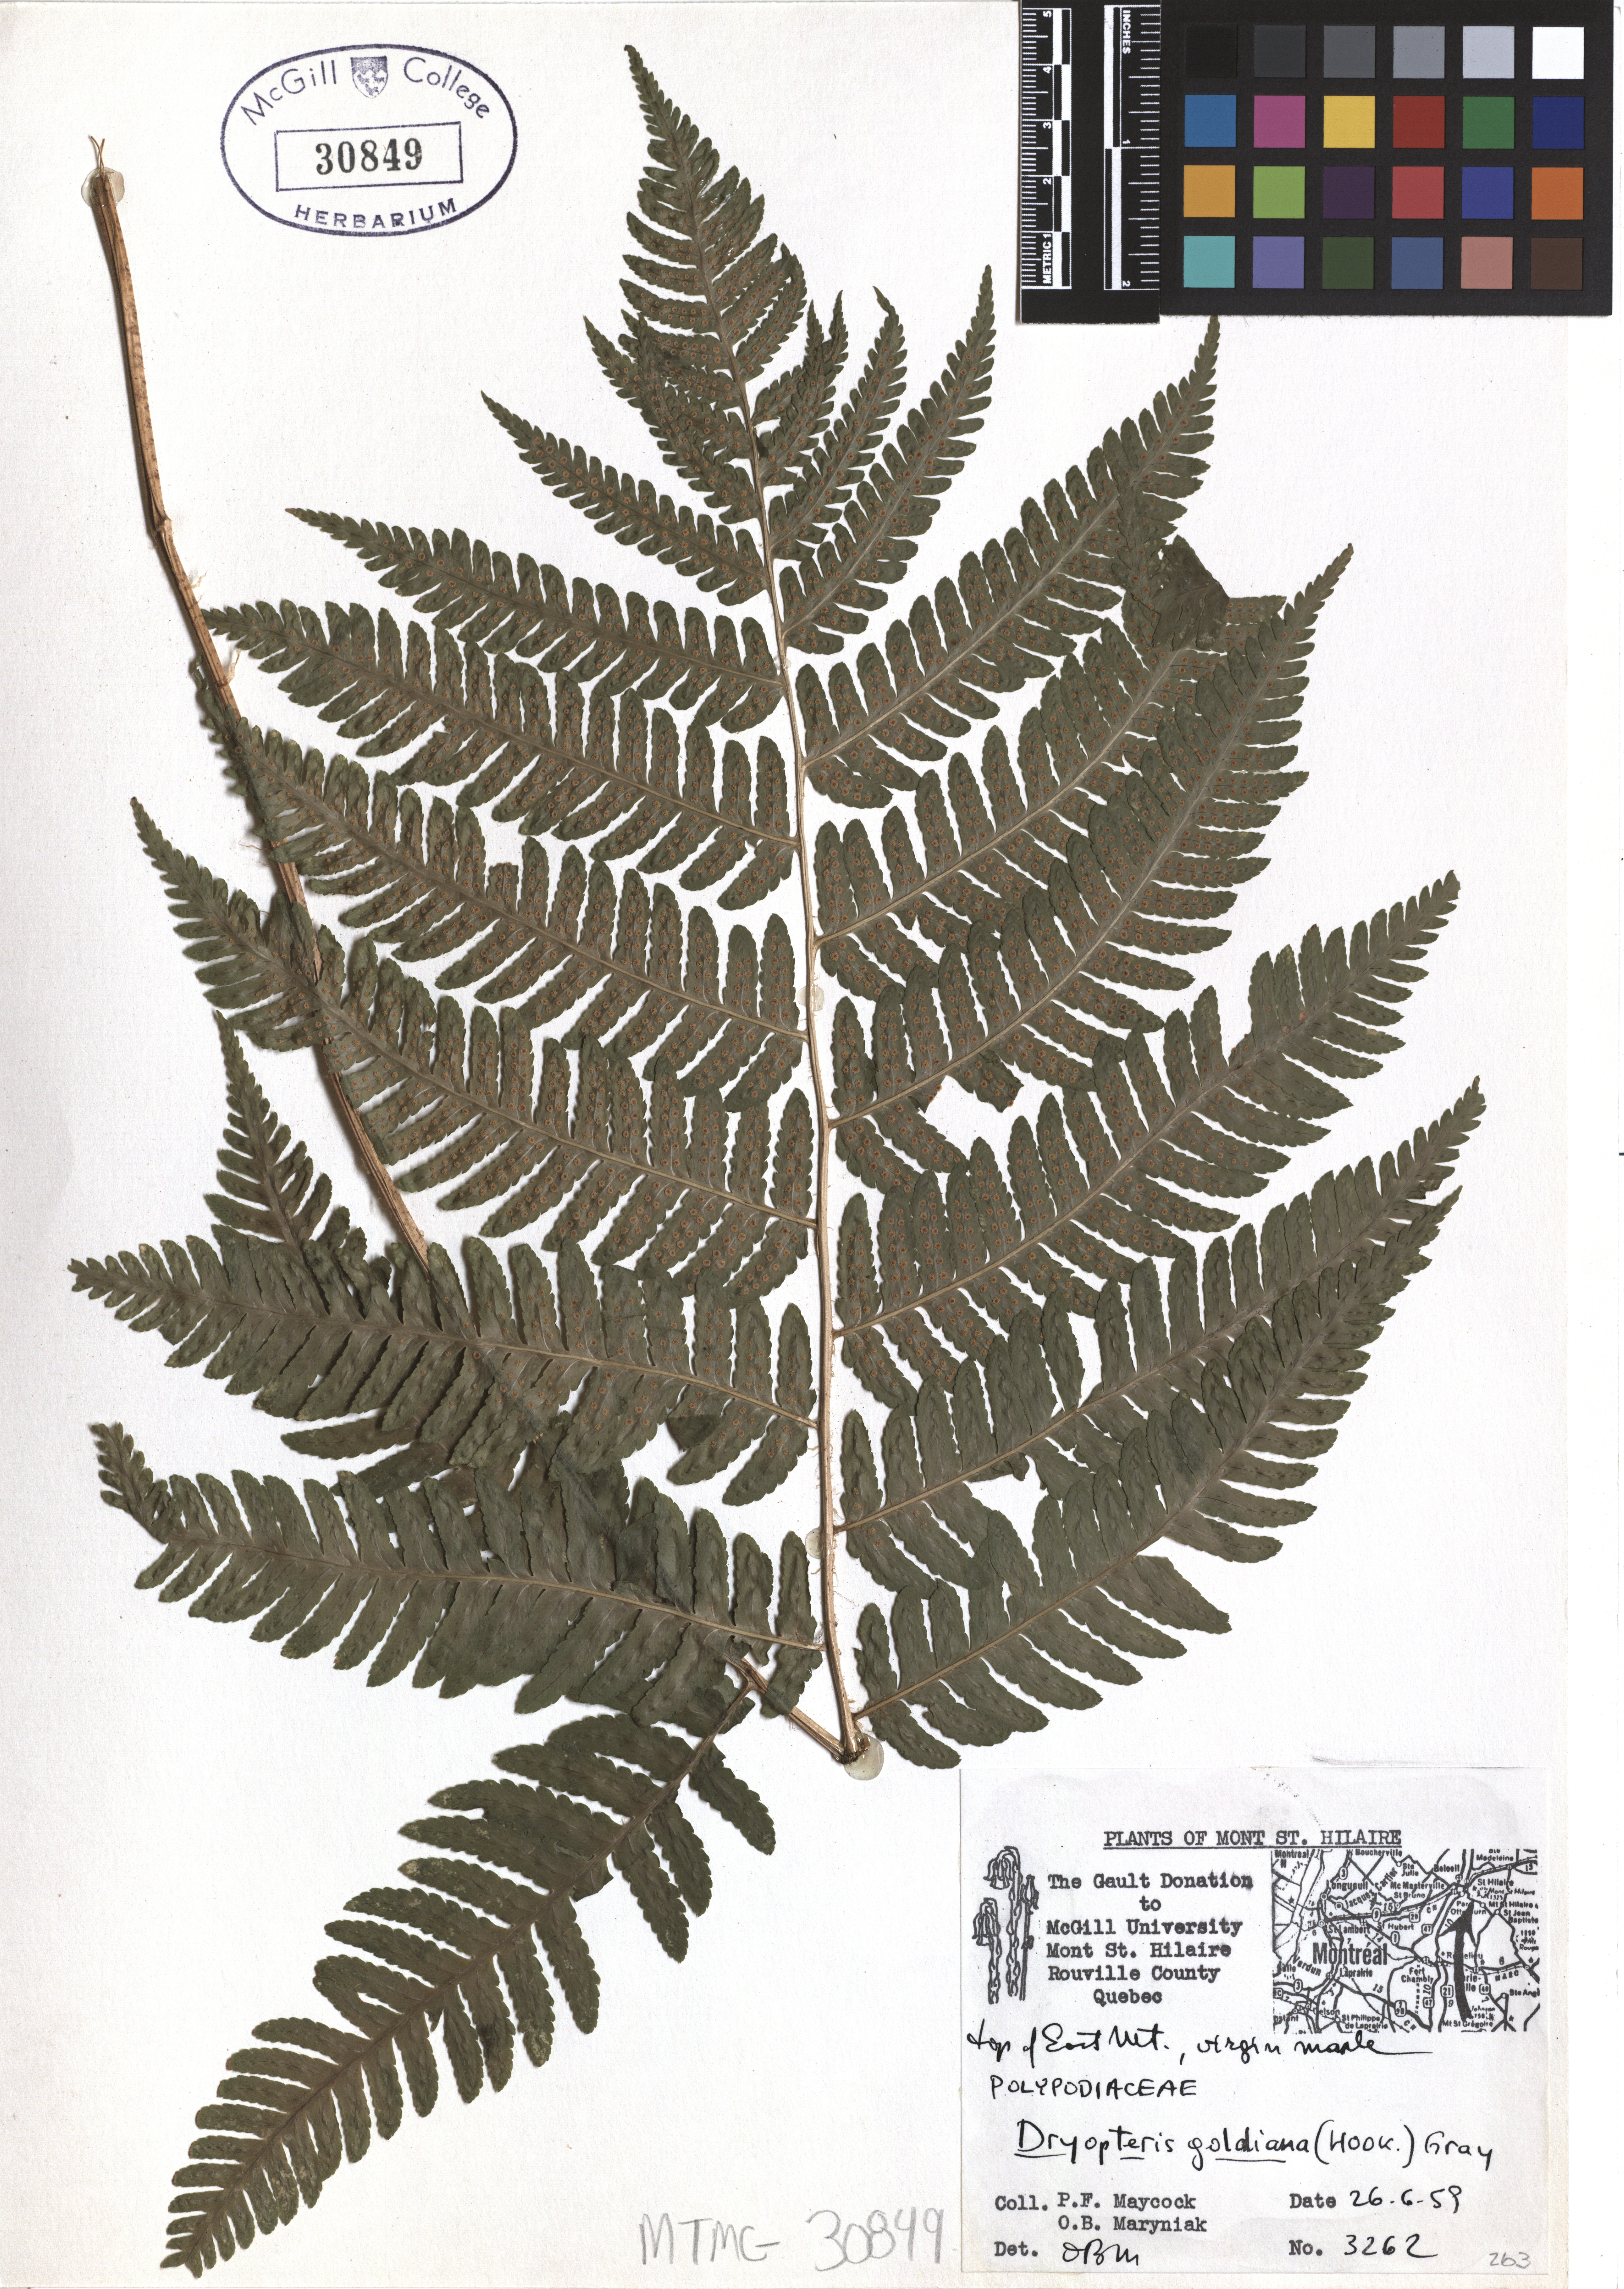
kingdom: Plantae
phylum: Tracheophyta
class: Polypodiopsida
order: Polypodiales
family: Dryopteridaceae
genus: Dryopteris
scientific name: Dryopteris goeldiana
